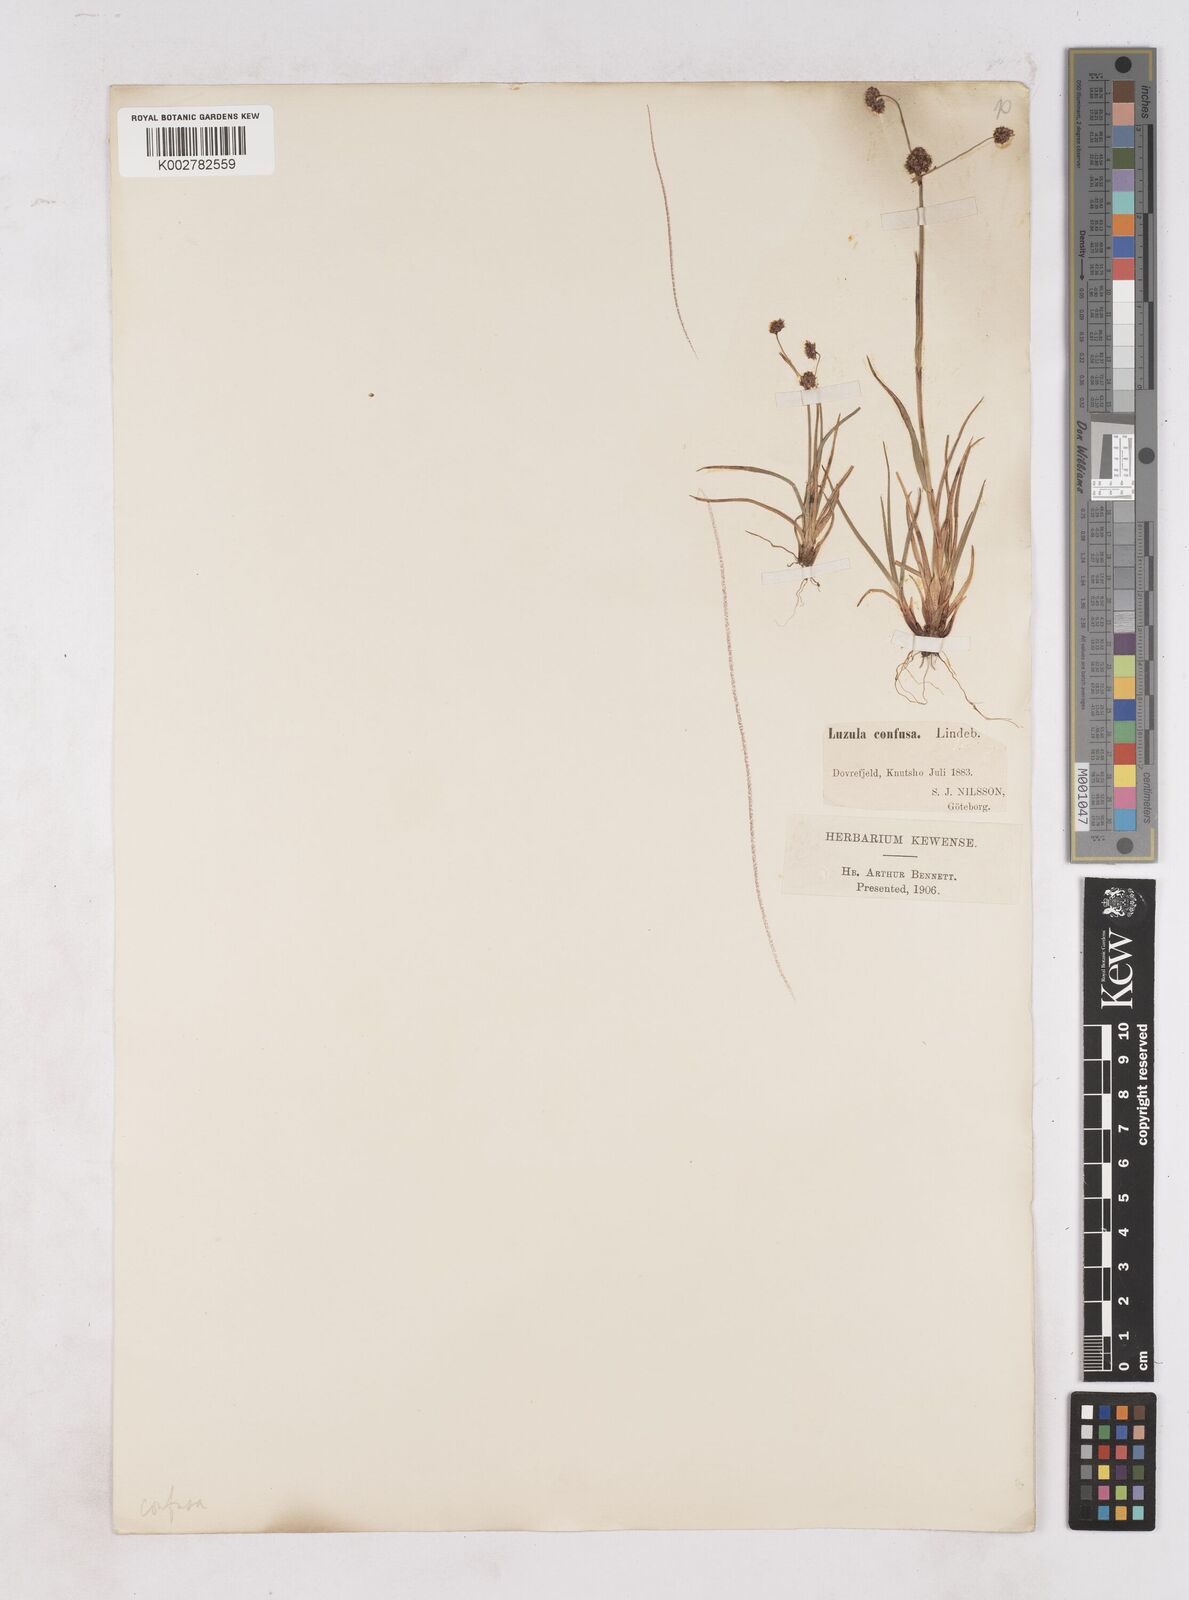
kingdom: Plantae
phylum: Tracheophyta
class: Liliopsida
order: Poales
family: Juncaceae
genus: Luzula
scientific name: Luzula confusa
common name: Northern wood rush
